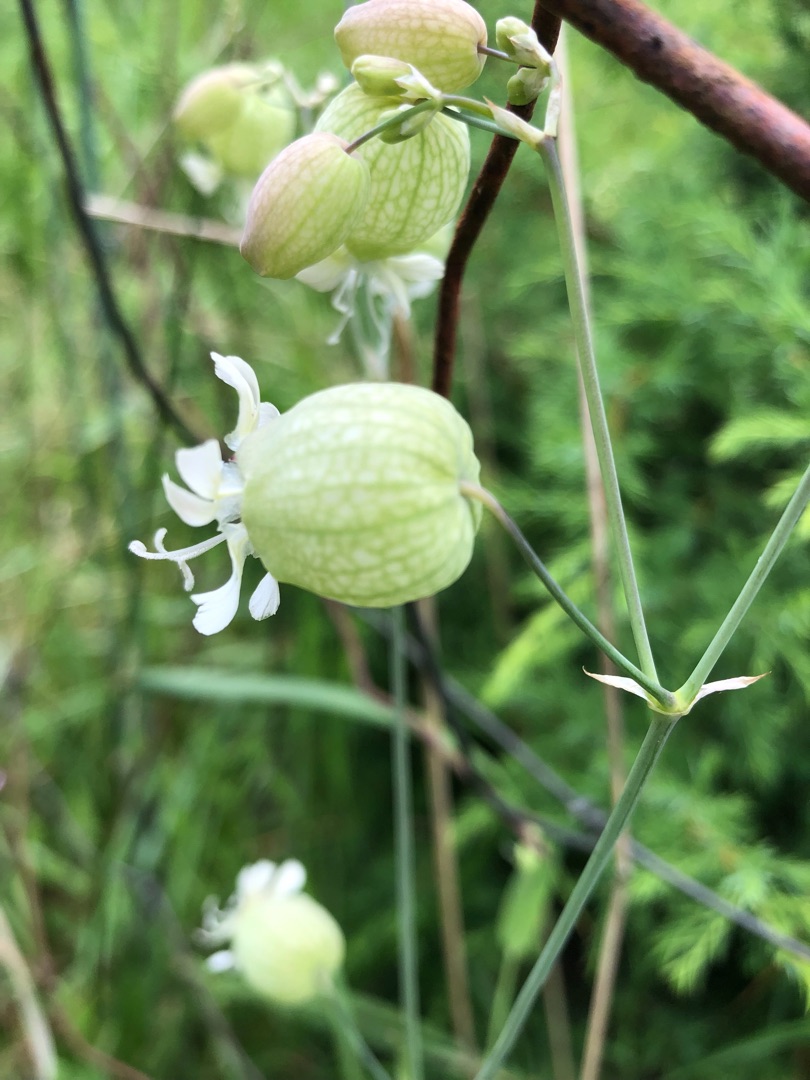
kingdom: Plantae
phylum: Tracheophyta
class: Magnoliopsida
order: Caryophyllales
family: Caryophyllaceae
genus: Silene
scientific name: Silene vulgaris
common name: Blæresmælde
